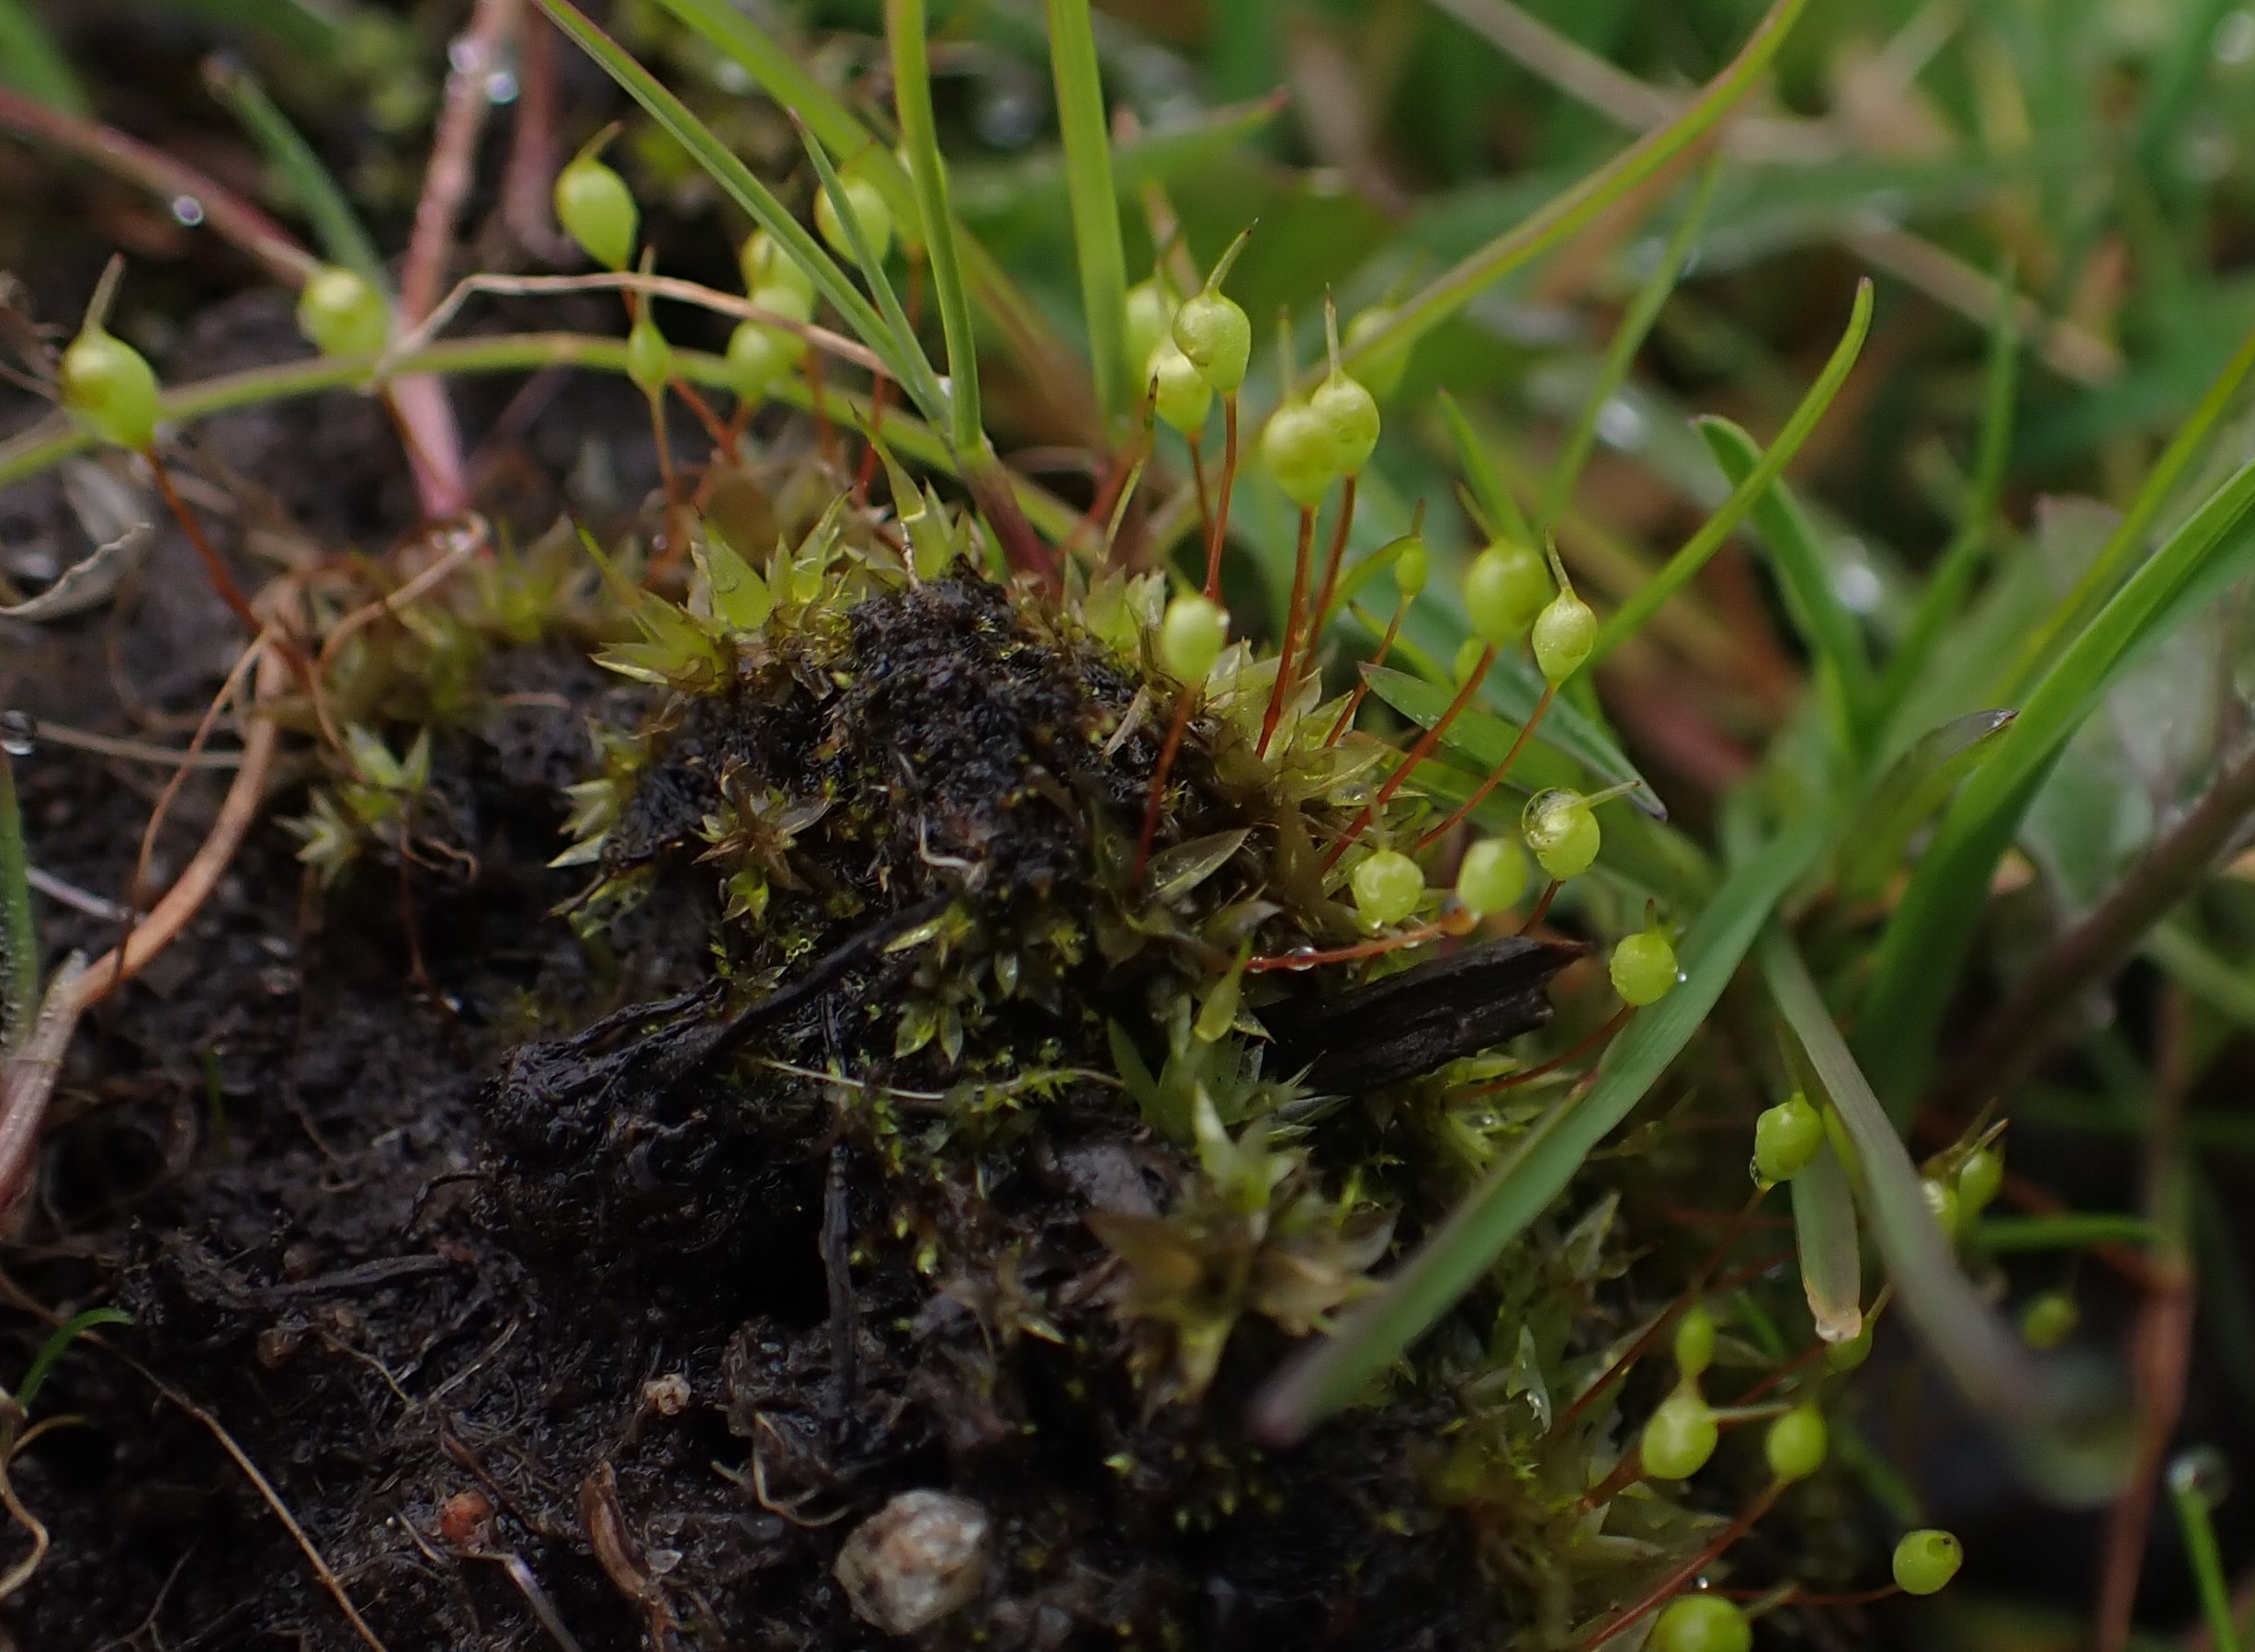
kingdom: Plantae
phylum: Bryophyta
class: Bryopsida
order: Funariales
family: Funariaceae
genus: Physcomitrium
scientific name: Physcomitrium pyriforme
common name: Almindelig pærekapsel
